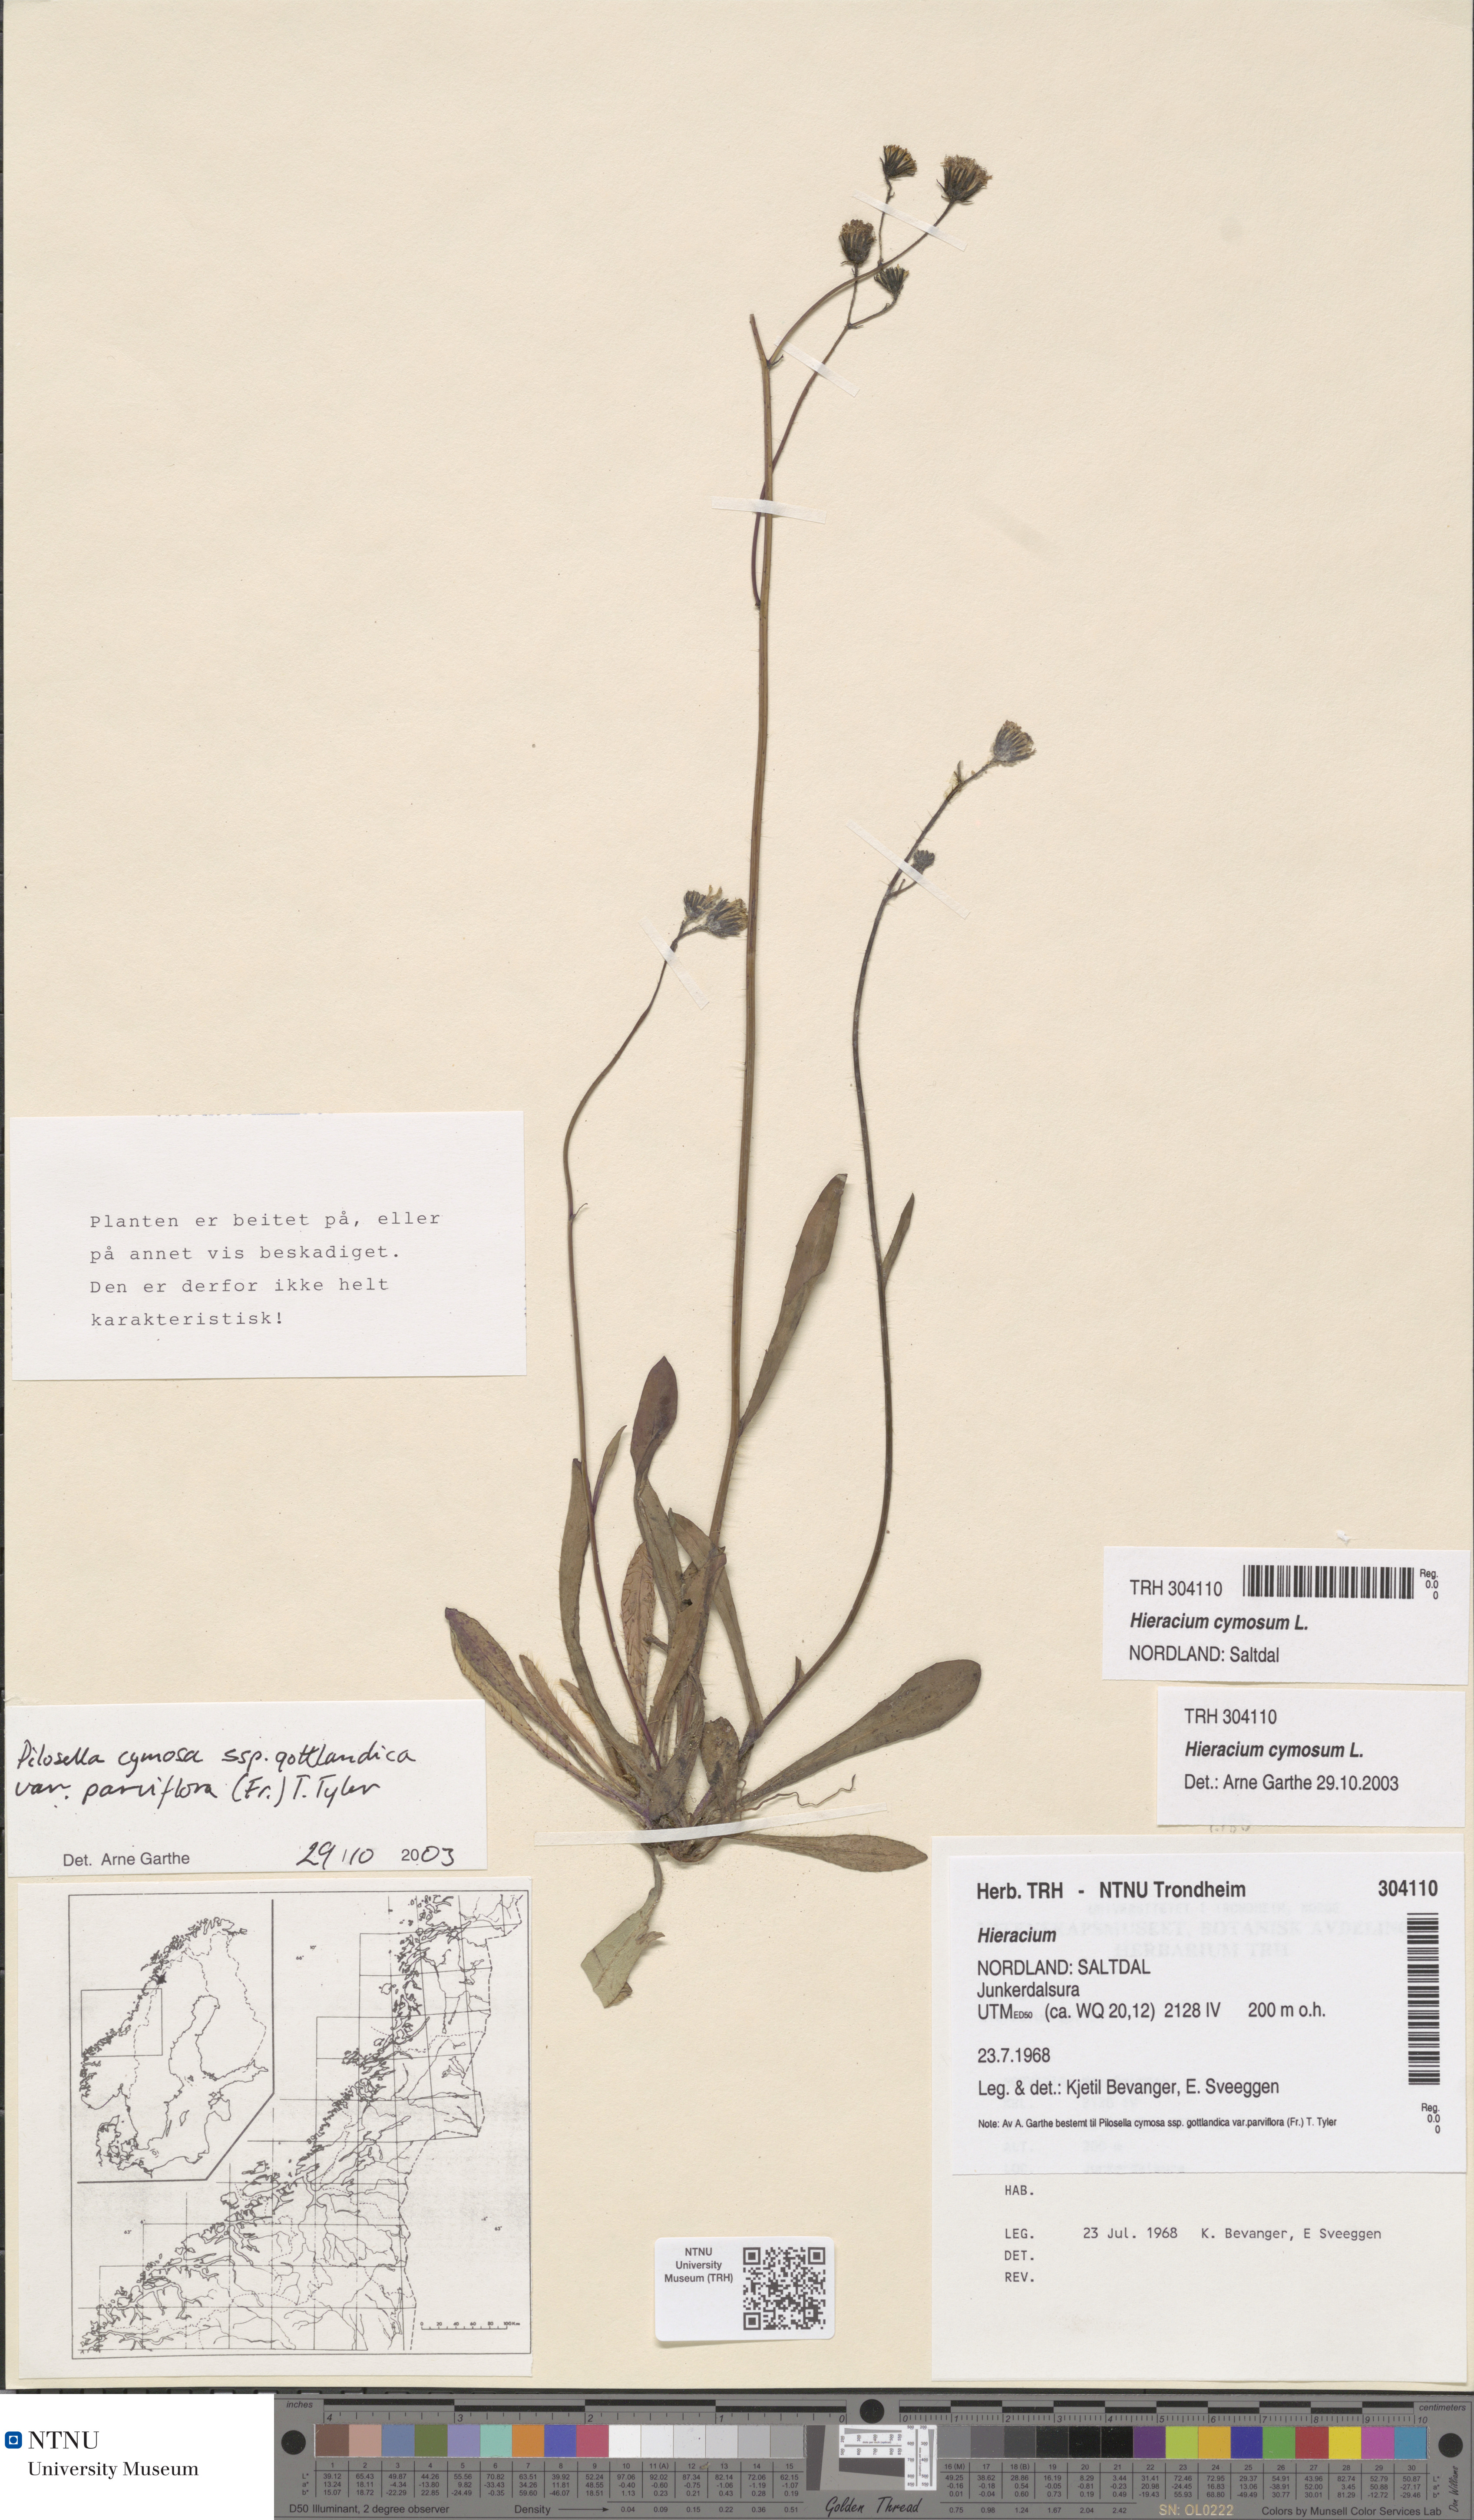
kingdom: Plantae
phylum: Tracheophyta
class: Magnoliopsida
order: Asterales
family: Asteraceae
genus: Pilosella
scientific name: Pilosella cymosa
